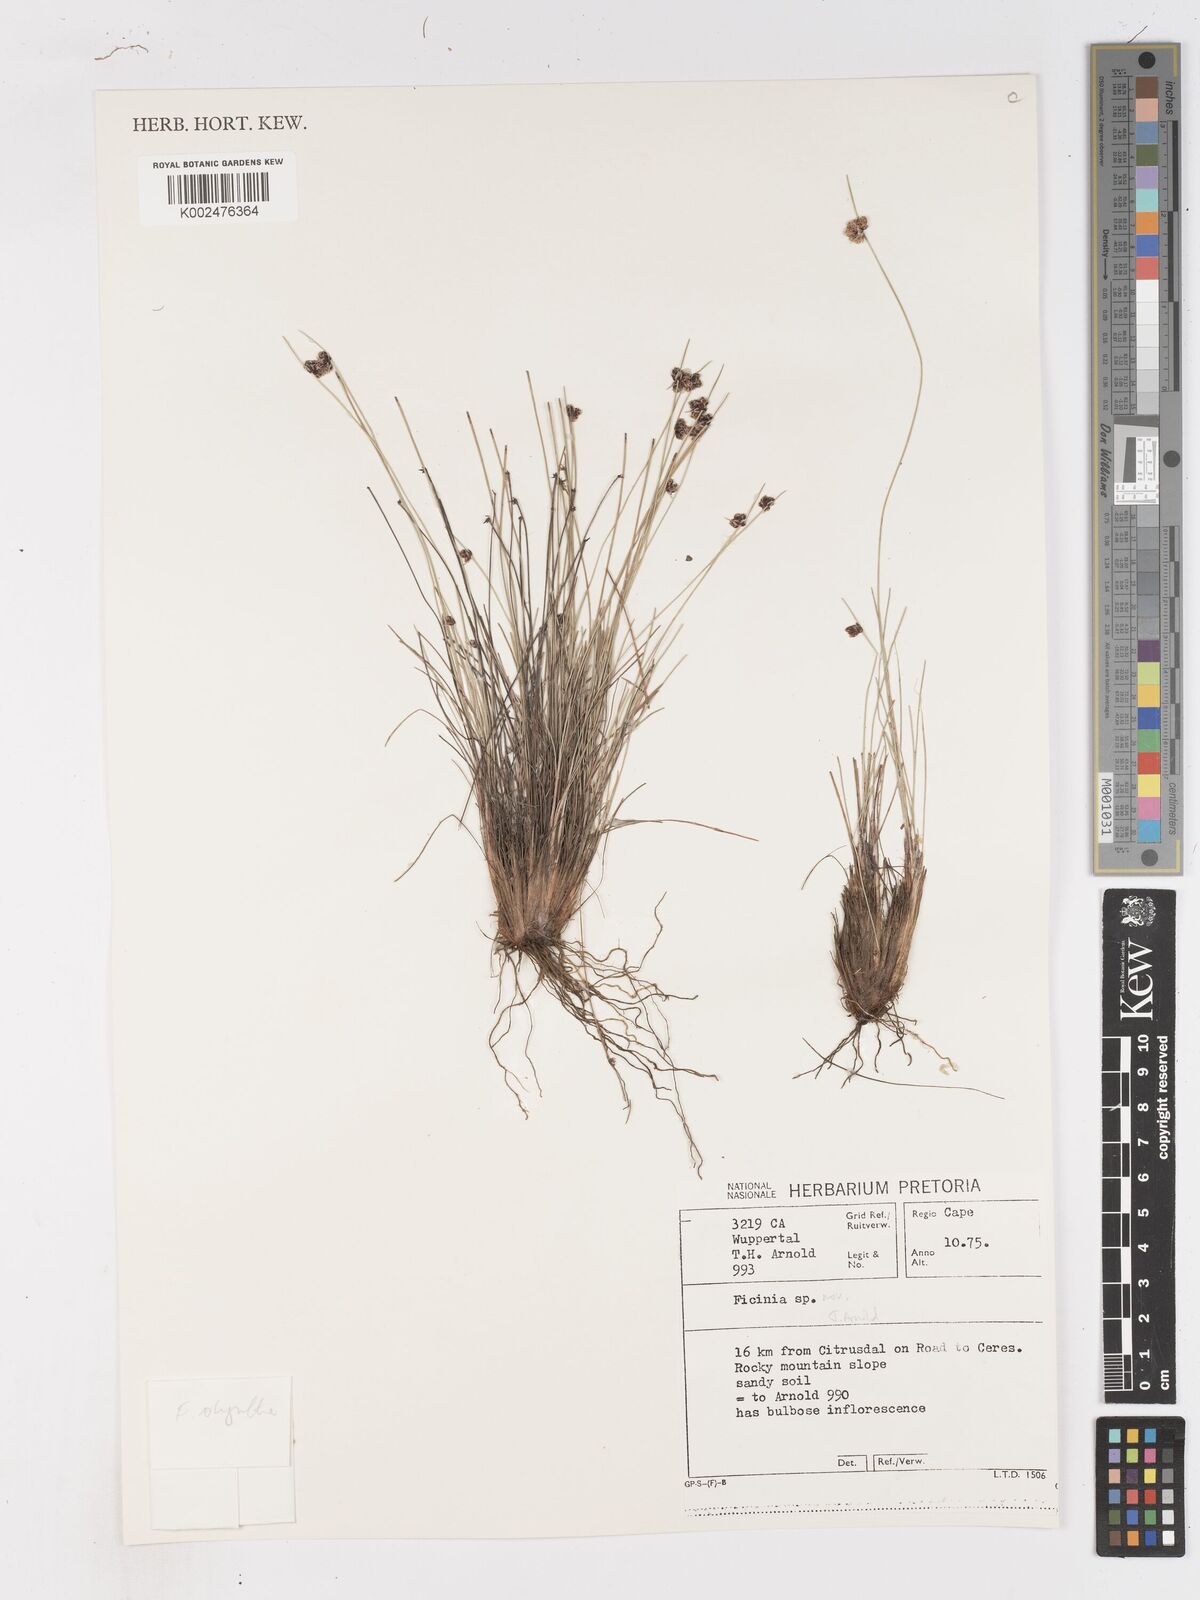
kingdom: Plantae
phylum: Tracheophyta
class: Liliopsida
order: Poales
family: Cyperaceae
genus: Ficinia
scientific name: Ficinia oligantha
